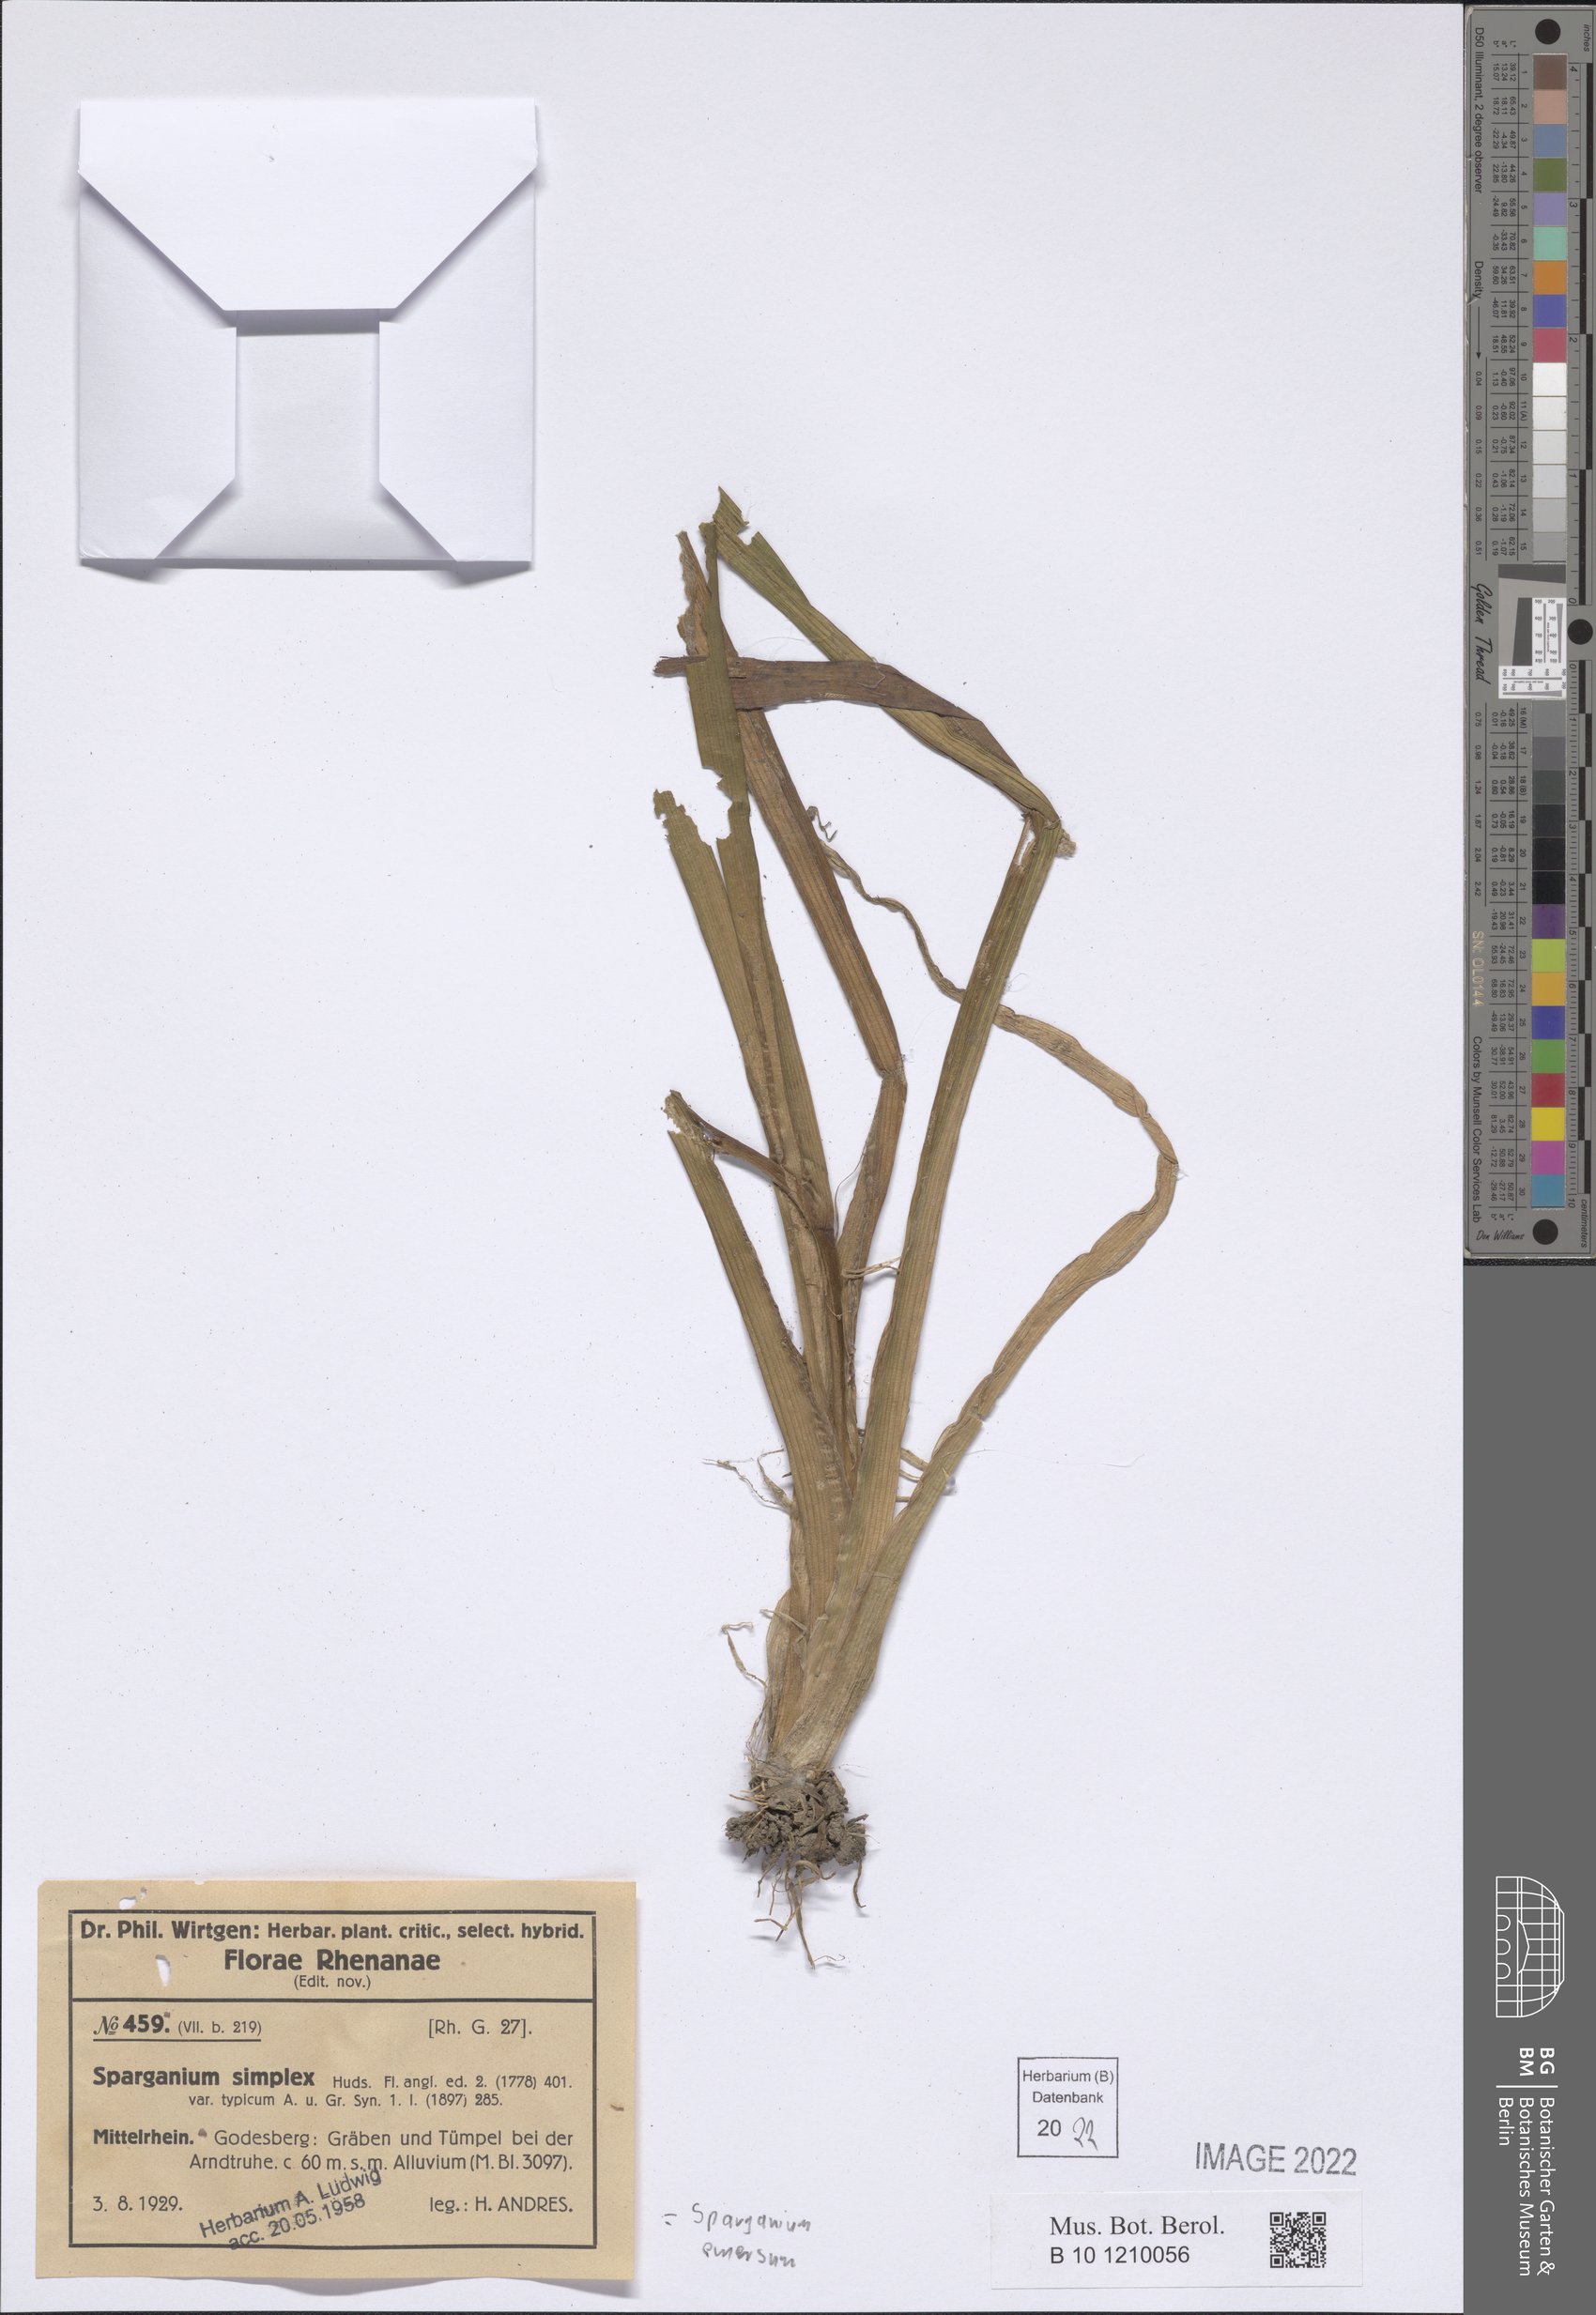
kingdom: Plantae
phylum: Tracheophyta
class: Liliopsida
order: Poales
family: Typhaceae
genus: Sparganium
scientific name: Sparganium emersum
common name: Unbranched bur-reed
